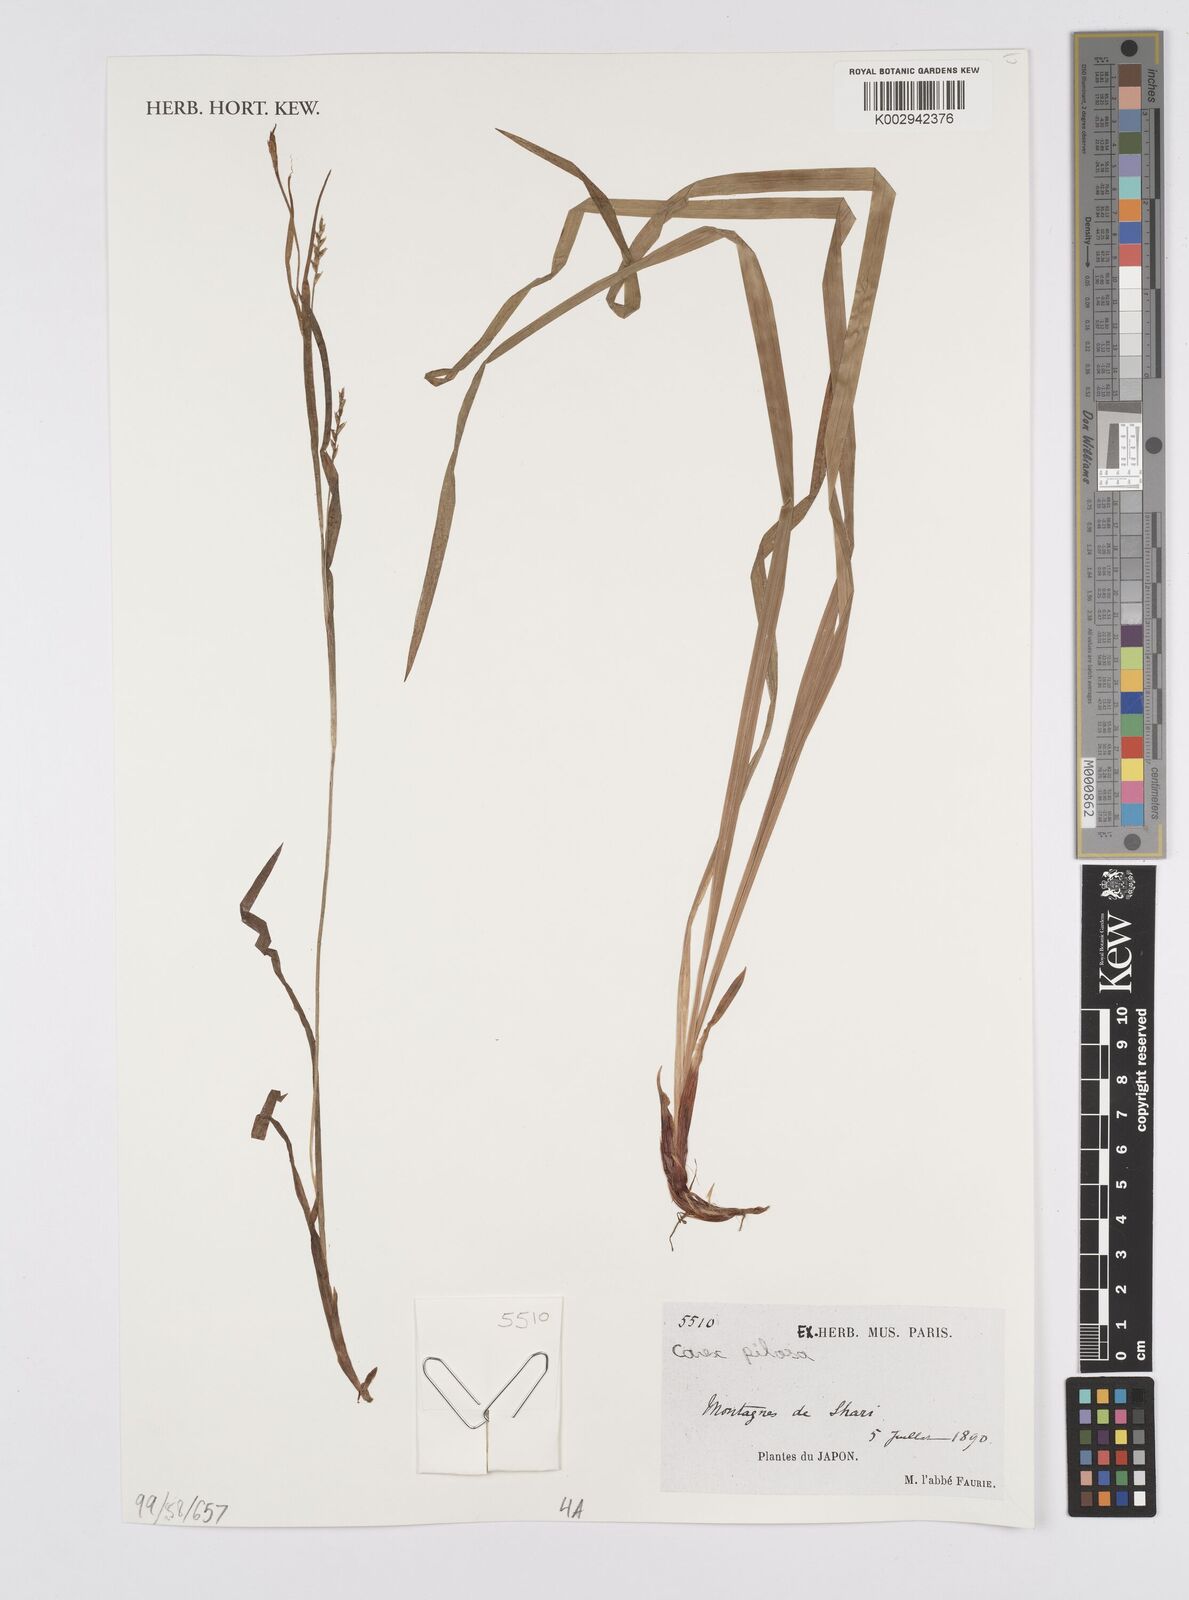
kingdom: Plantae
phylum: Tracheophyta
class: Liliopsida
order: Poales
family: Cyperaceae
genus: Carex
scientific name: Carex pilosa
